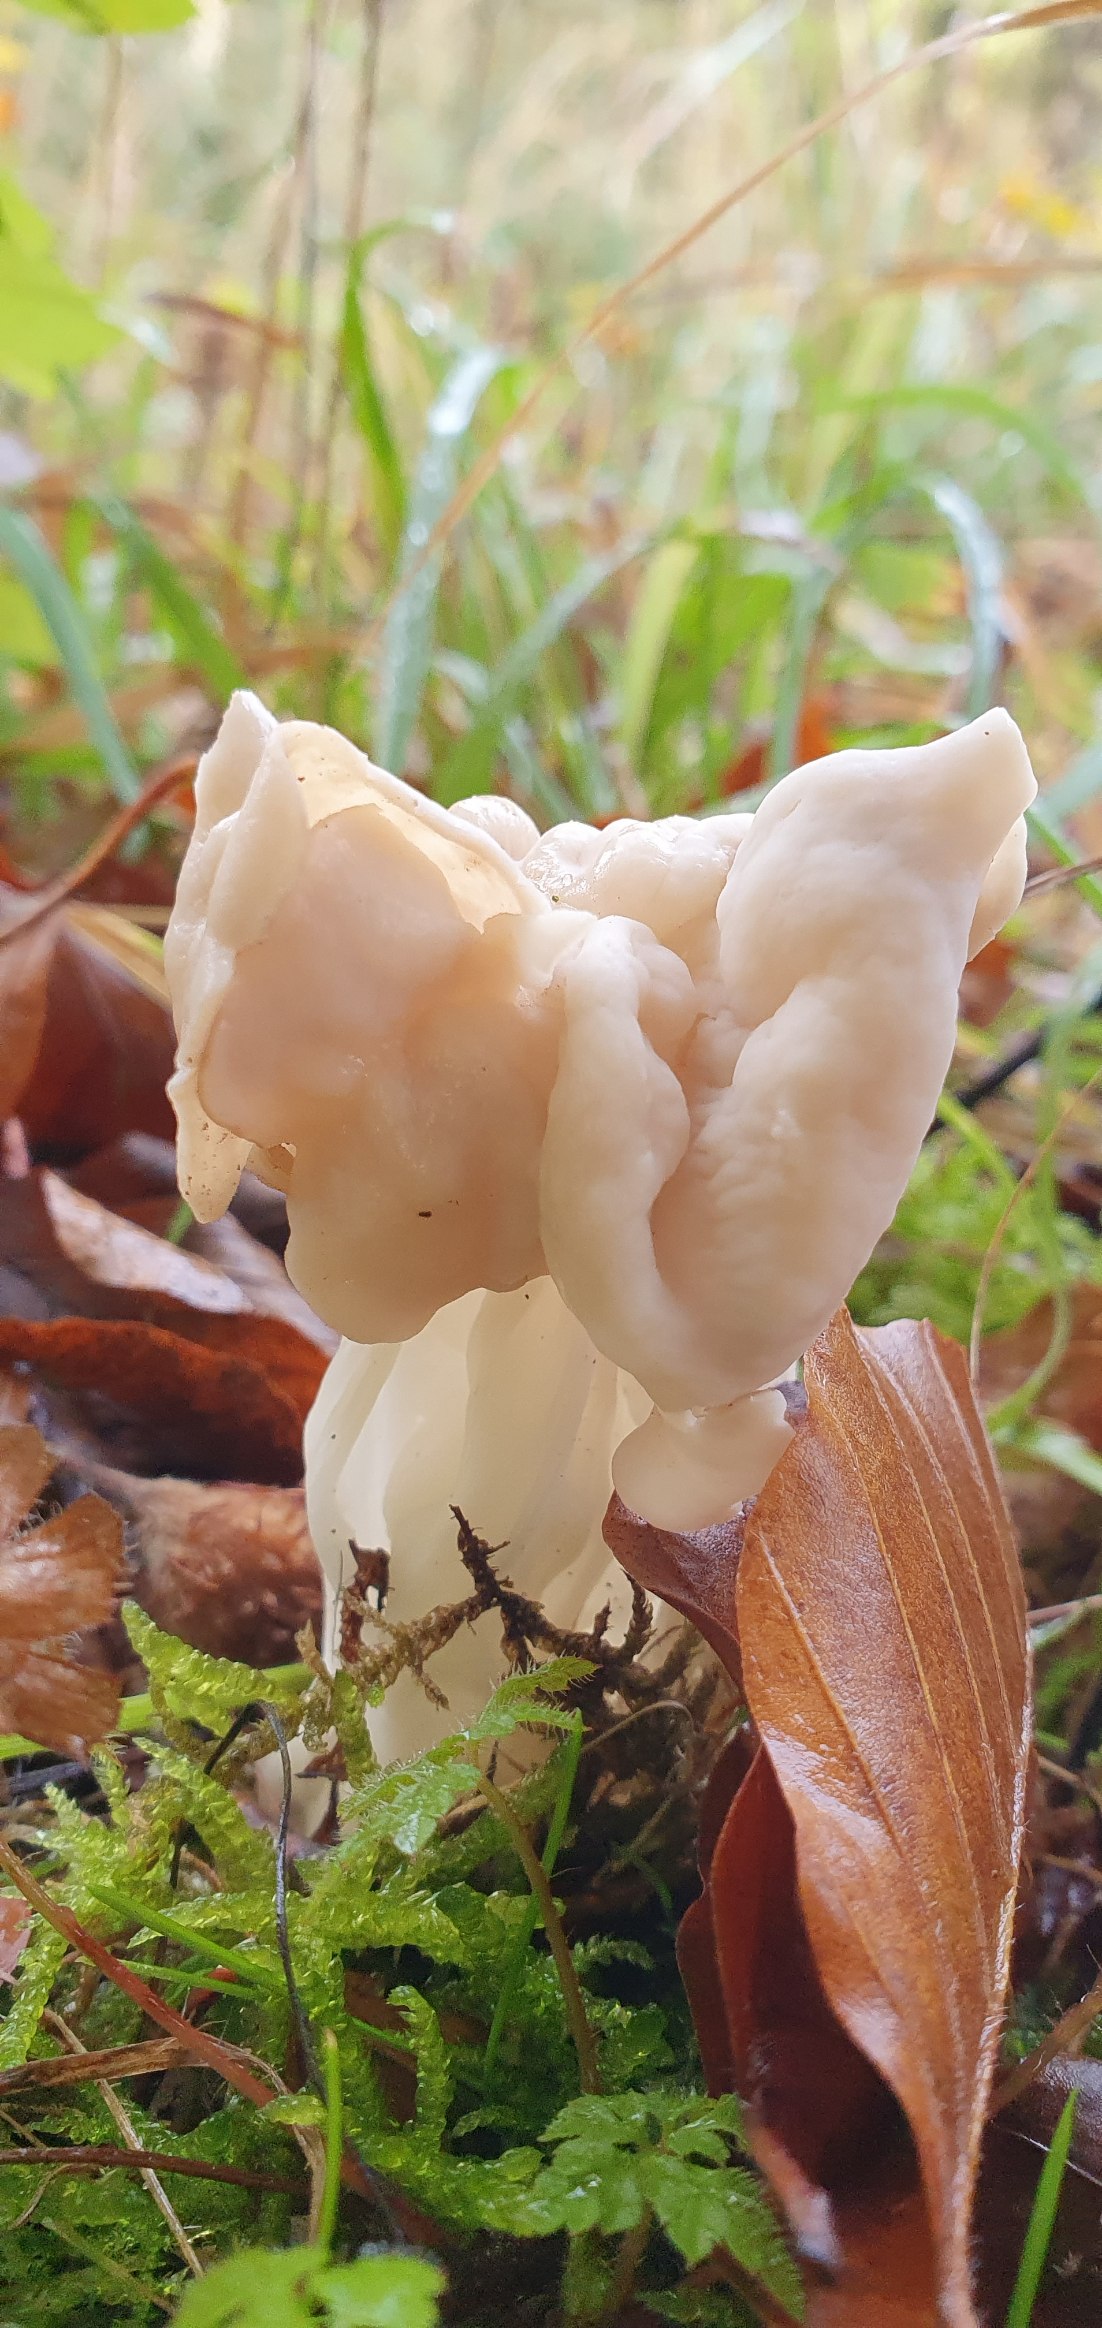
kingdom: Fungi
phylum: Ascomycota
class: Pezizomycetes
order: Pezizales
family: Helvellaceae
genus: Helvella
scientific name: Helvella crispa
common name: Kruset foldhat
